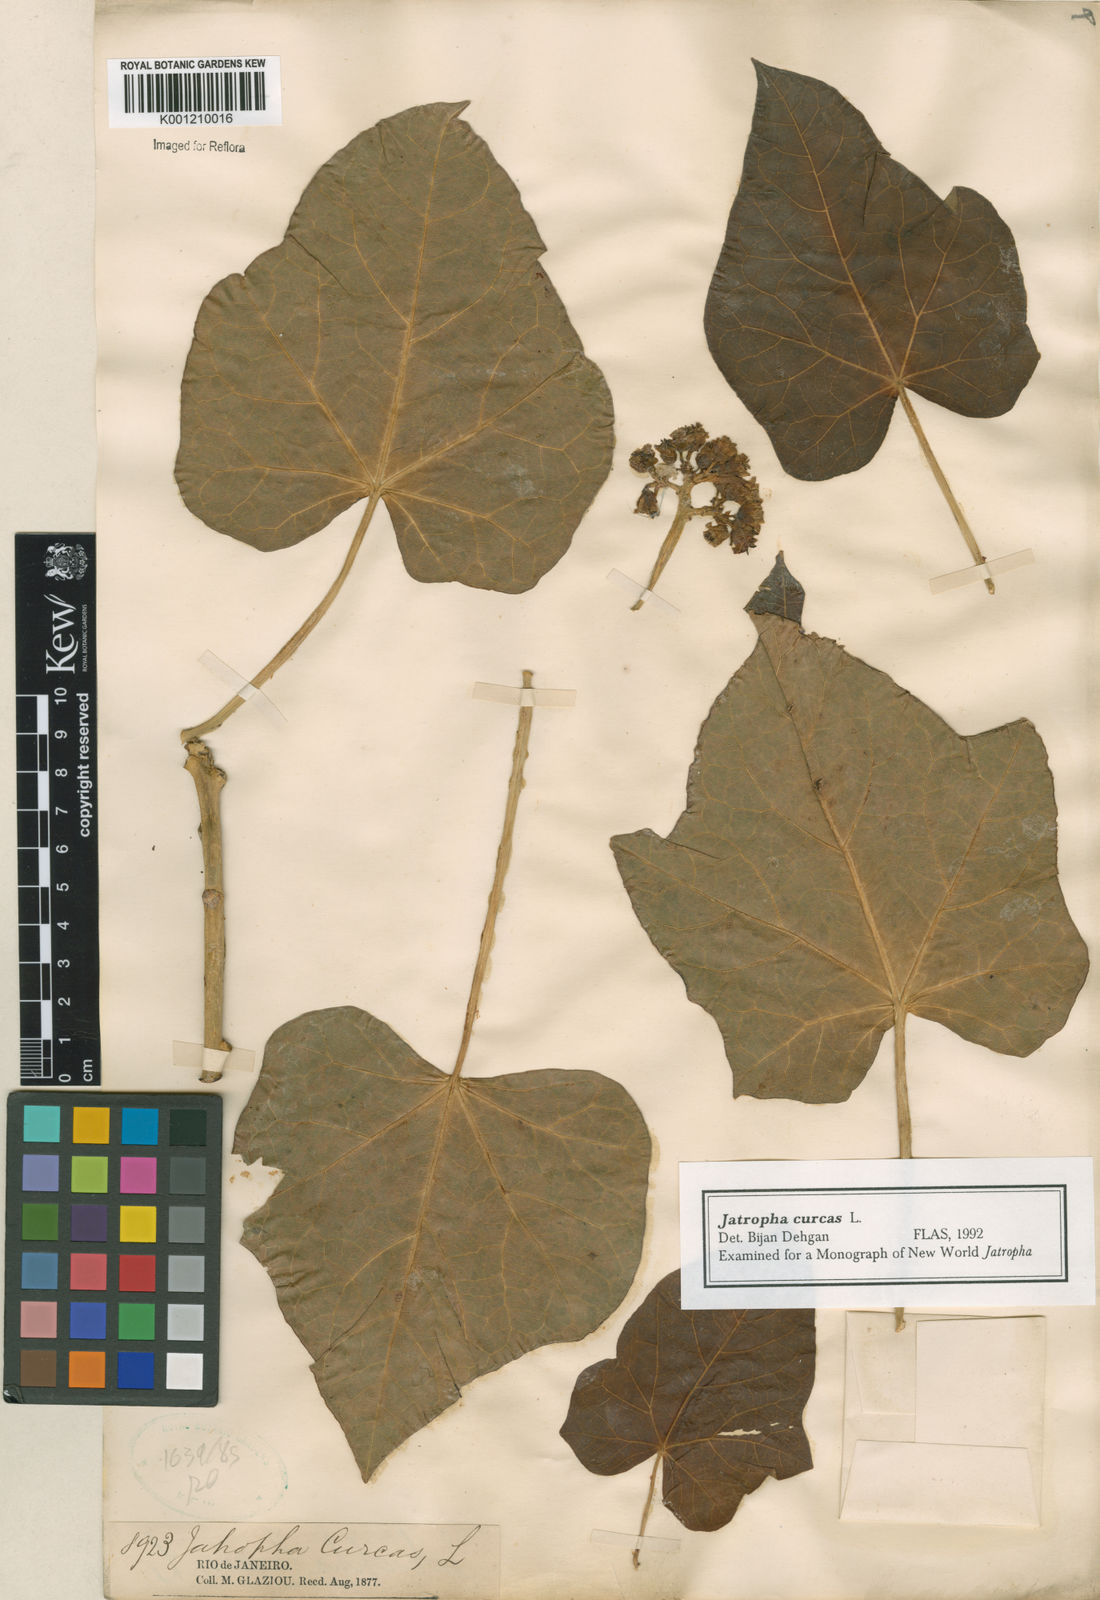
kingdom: Plantae
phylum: Tracheophyta
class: Magnoliopsida
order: Malpighiales
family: Euphorbiaceae
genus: Jatropha
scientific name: Jatropha curcas
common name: Barbados nut
